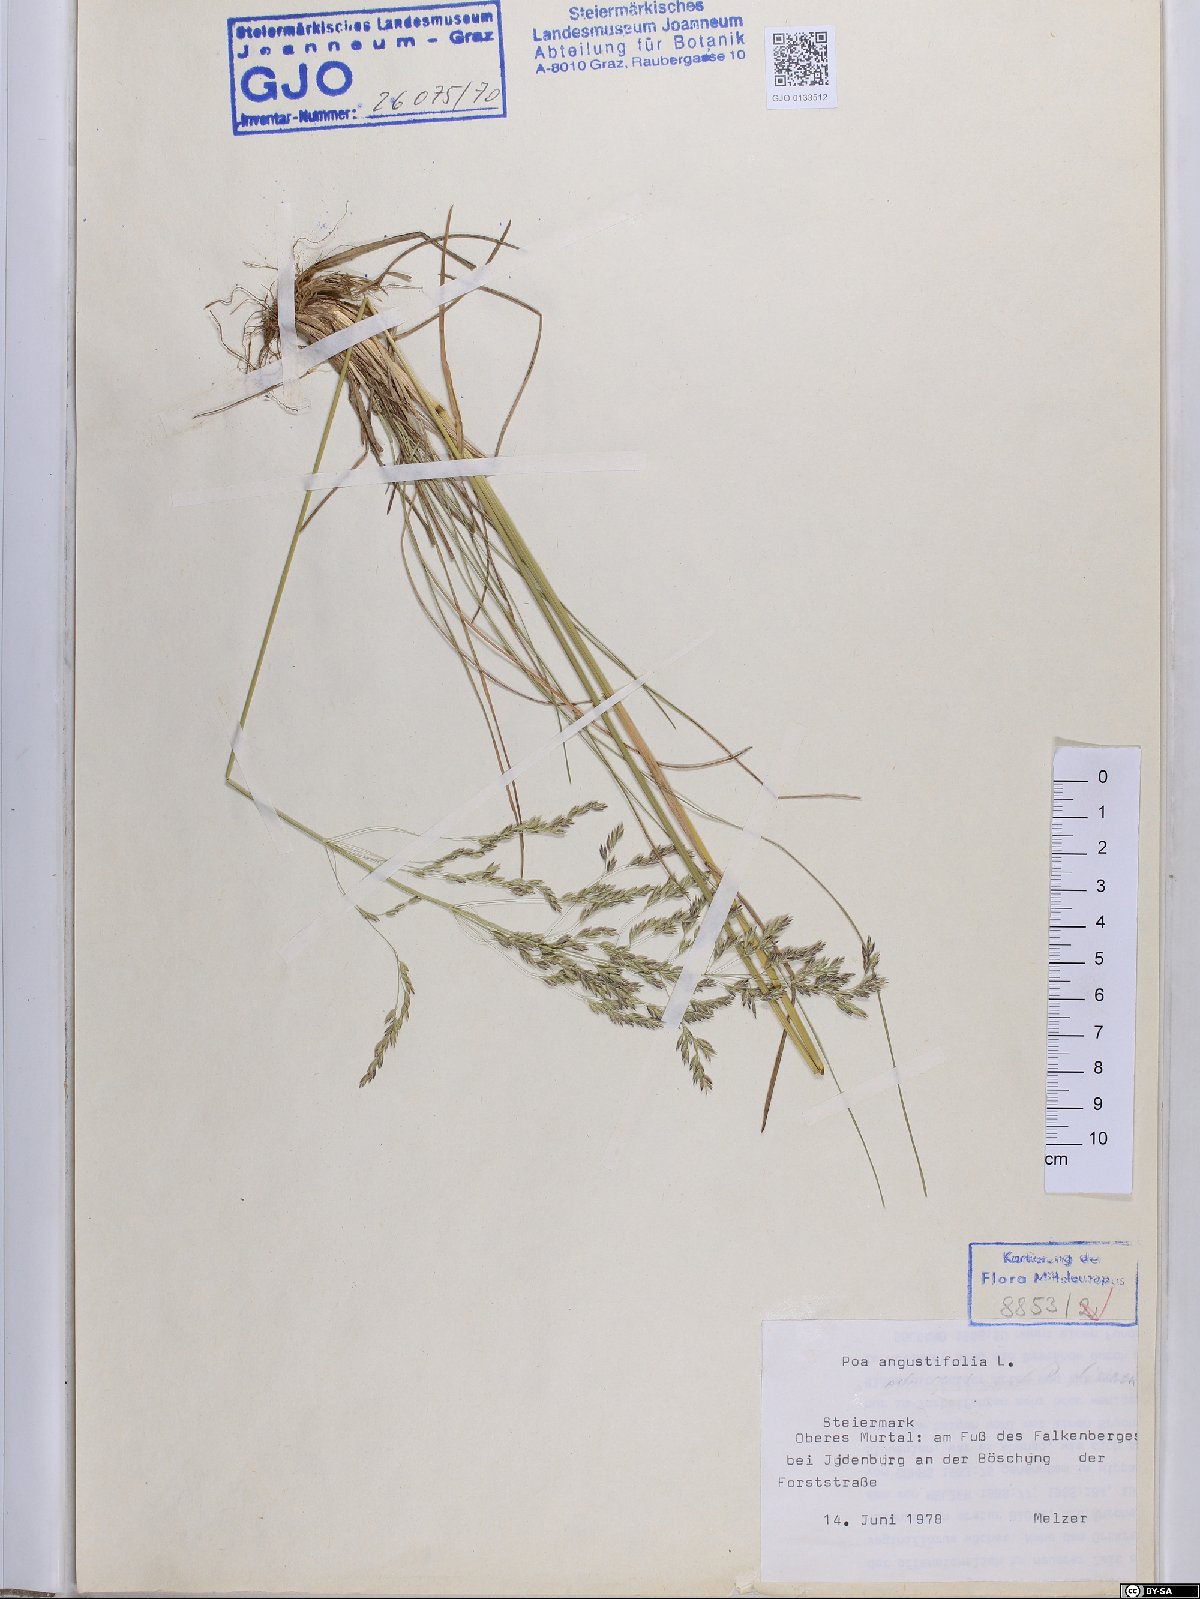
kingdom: Plantae
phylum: Tracheophyta
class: Liliopsida
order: Poales
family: Poaceae
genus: Poa
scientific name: Poa angustifolia
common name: Narrow-leaved meadow-grass
